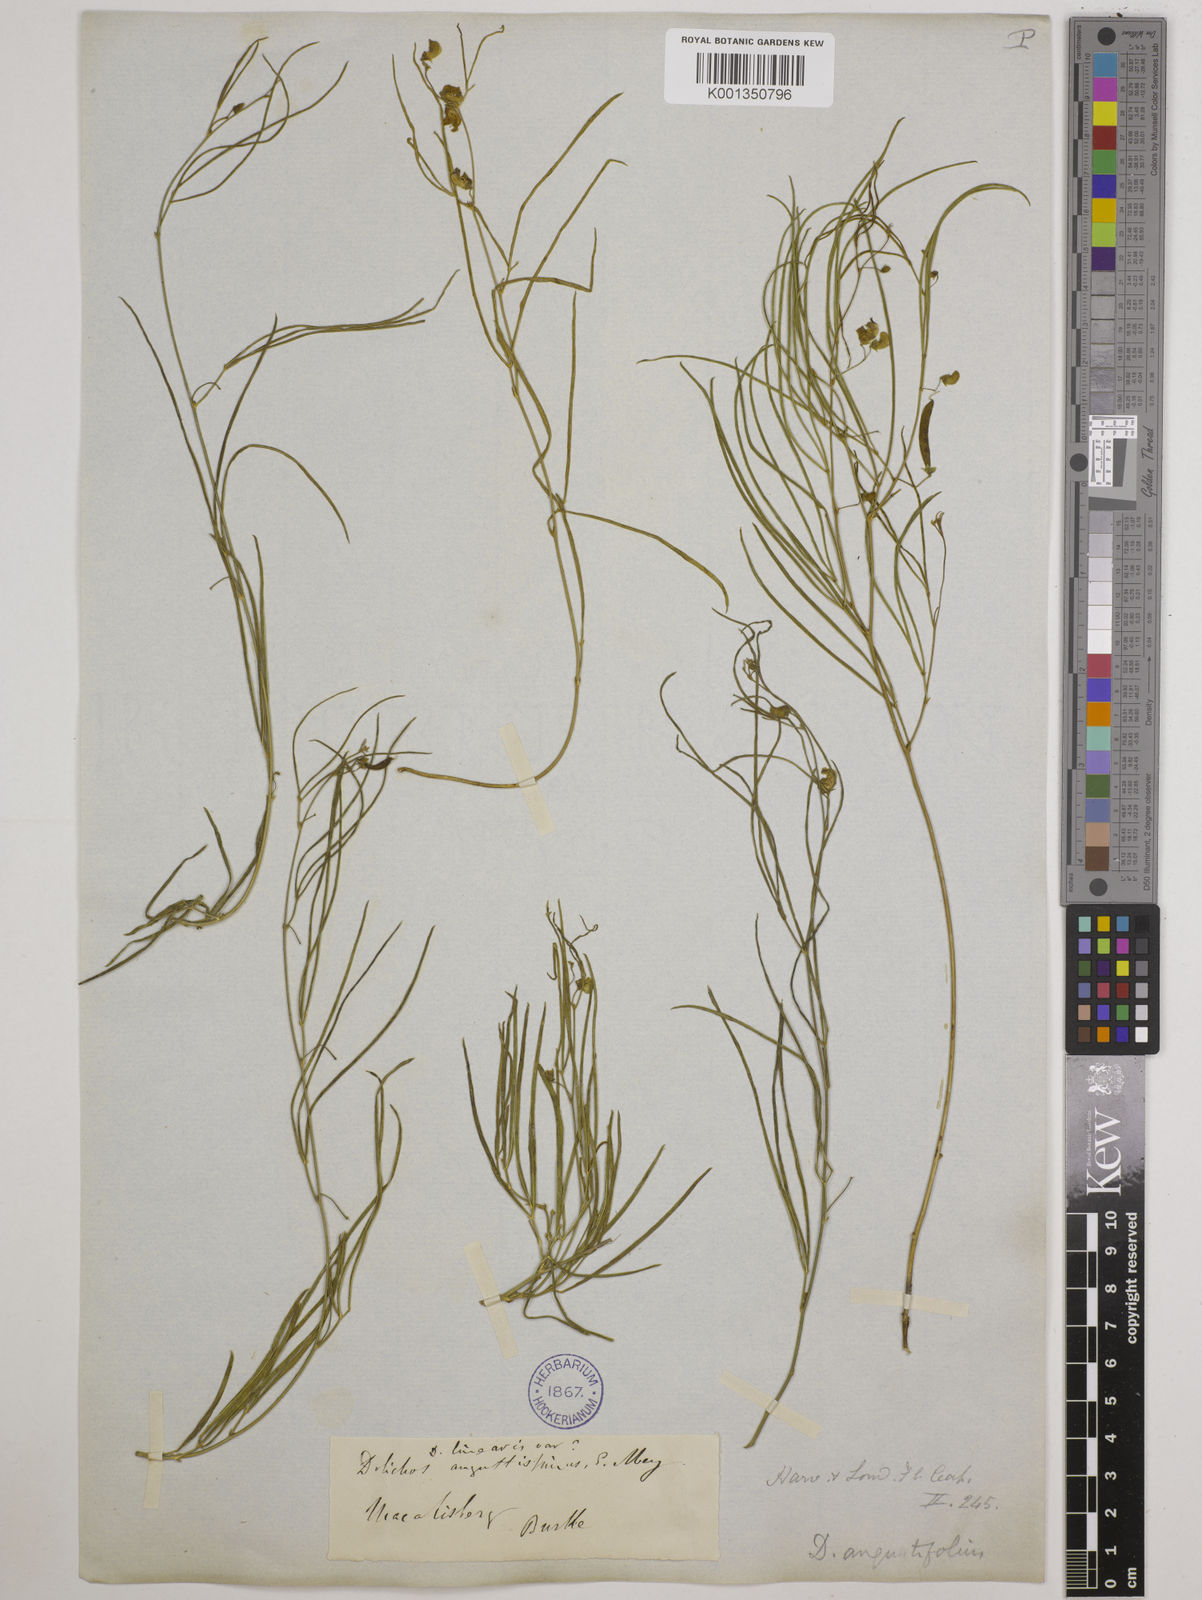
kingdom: Plantae
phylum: Tracheophyta
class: Magnoliopsida
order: Fabales
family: Fabaceae
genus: Dolichos
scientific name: Dolichos
